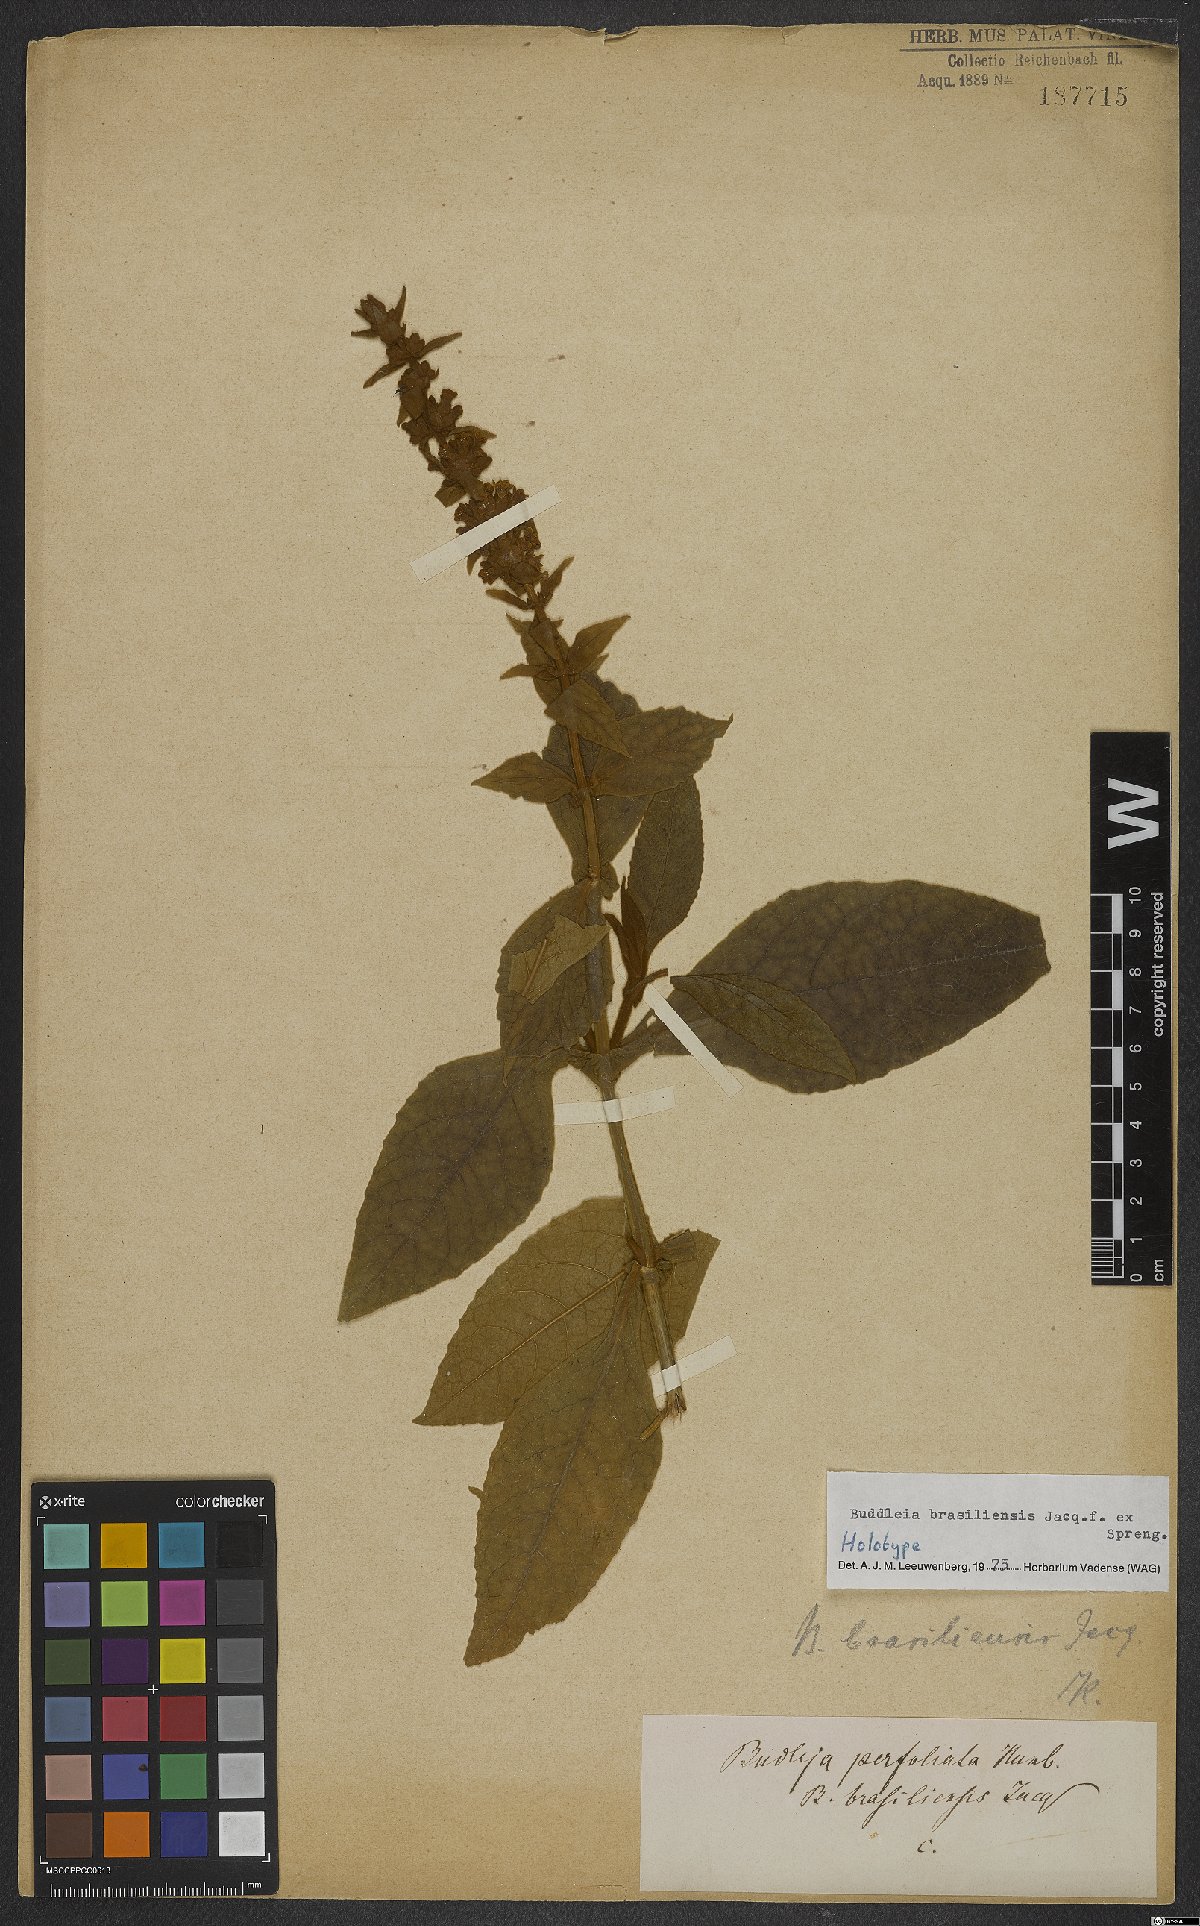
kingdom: Plantae
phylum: Tracheophyta
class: Magnoliopsida
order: Lamiales
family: Scrophulariaceae
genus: Buddleja
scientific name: Buddleja stachyoides
